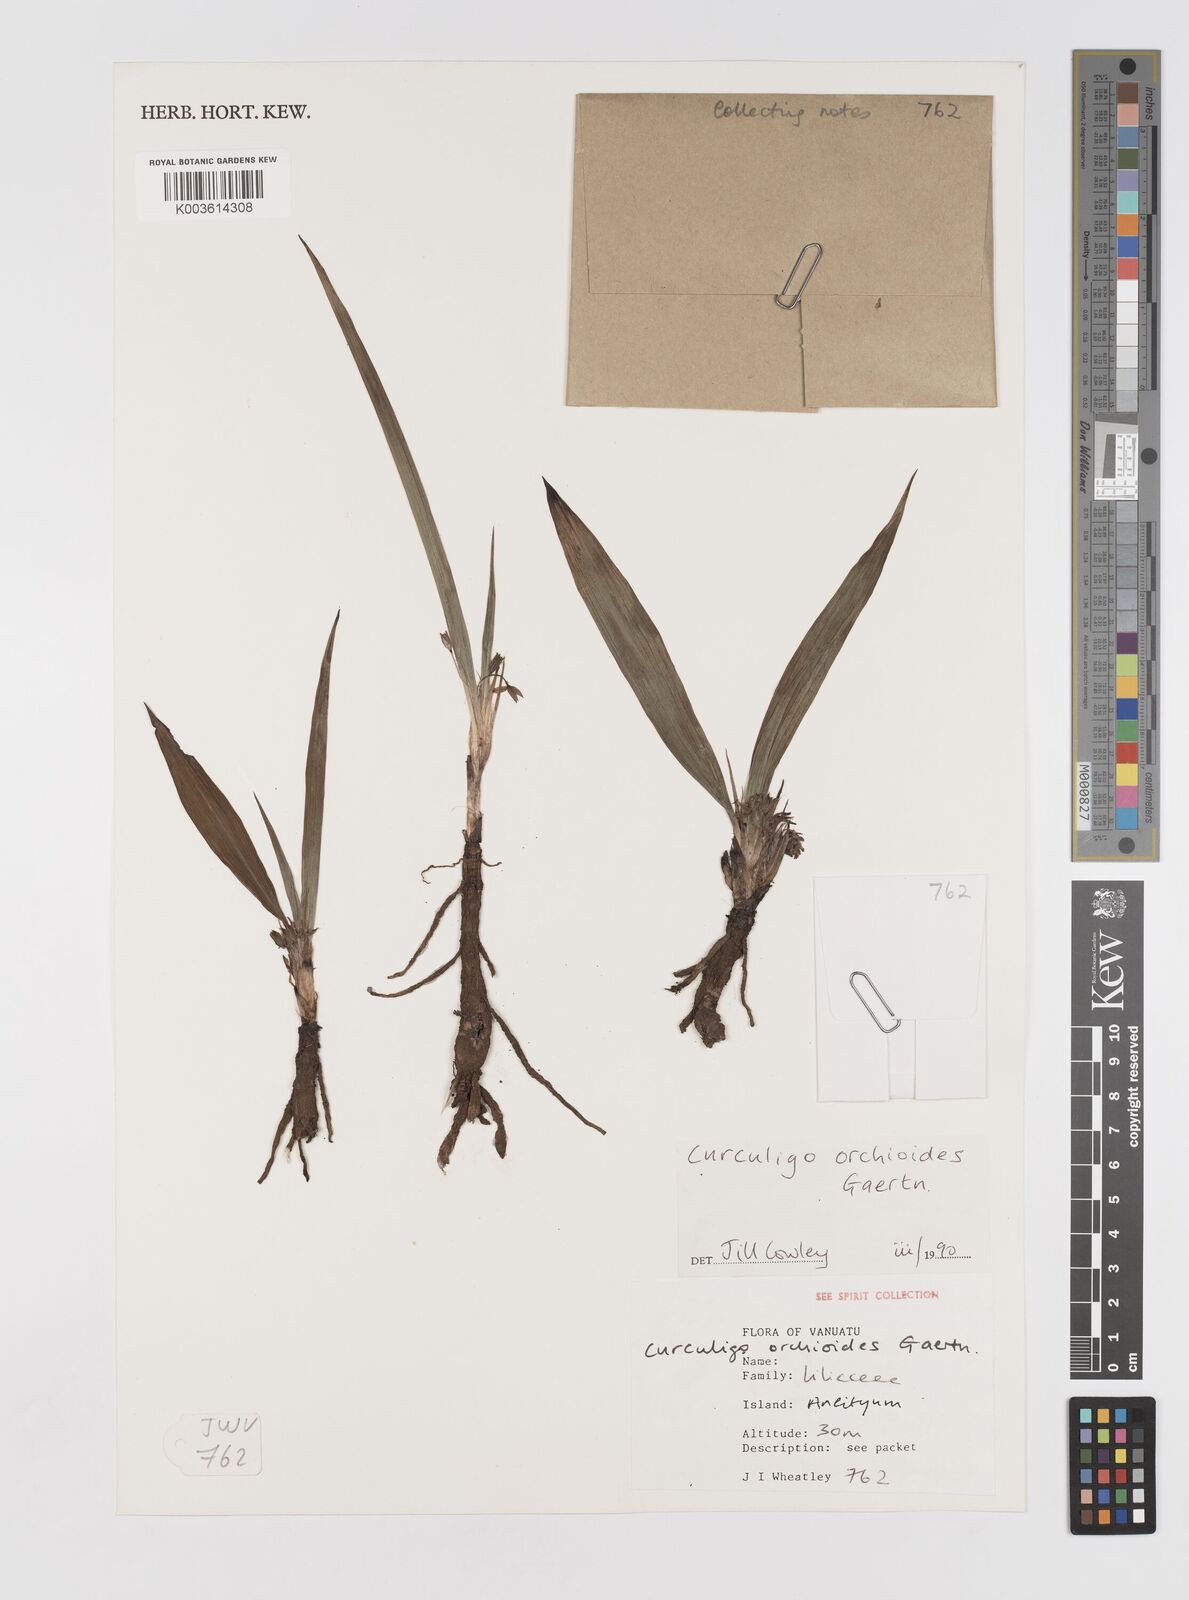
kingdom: Plantae
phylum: Tracheophyta
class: Liliopsida
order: Asparagales
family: Hypoxidaceae
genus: Curculigo
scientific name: Curculigo orchioides
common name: Golden eye-grass
